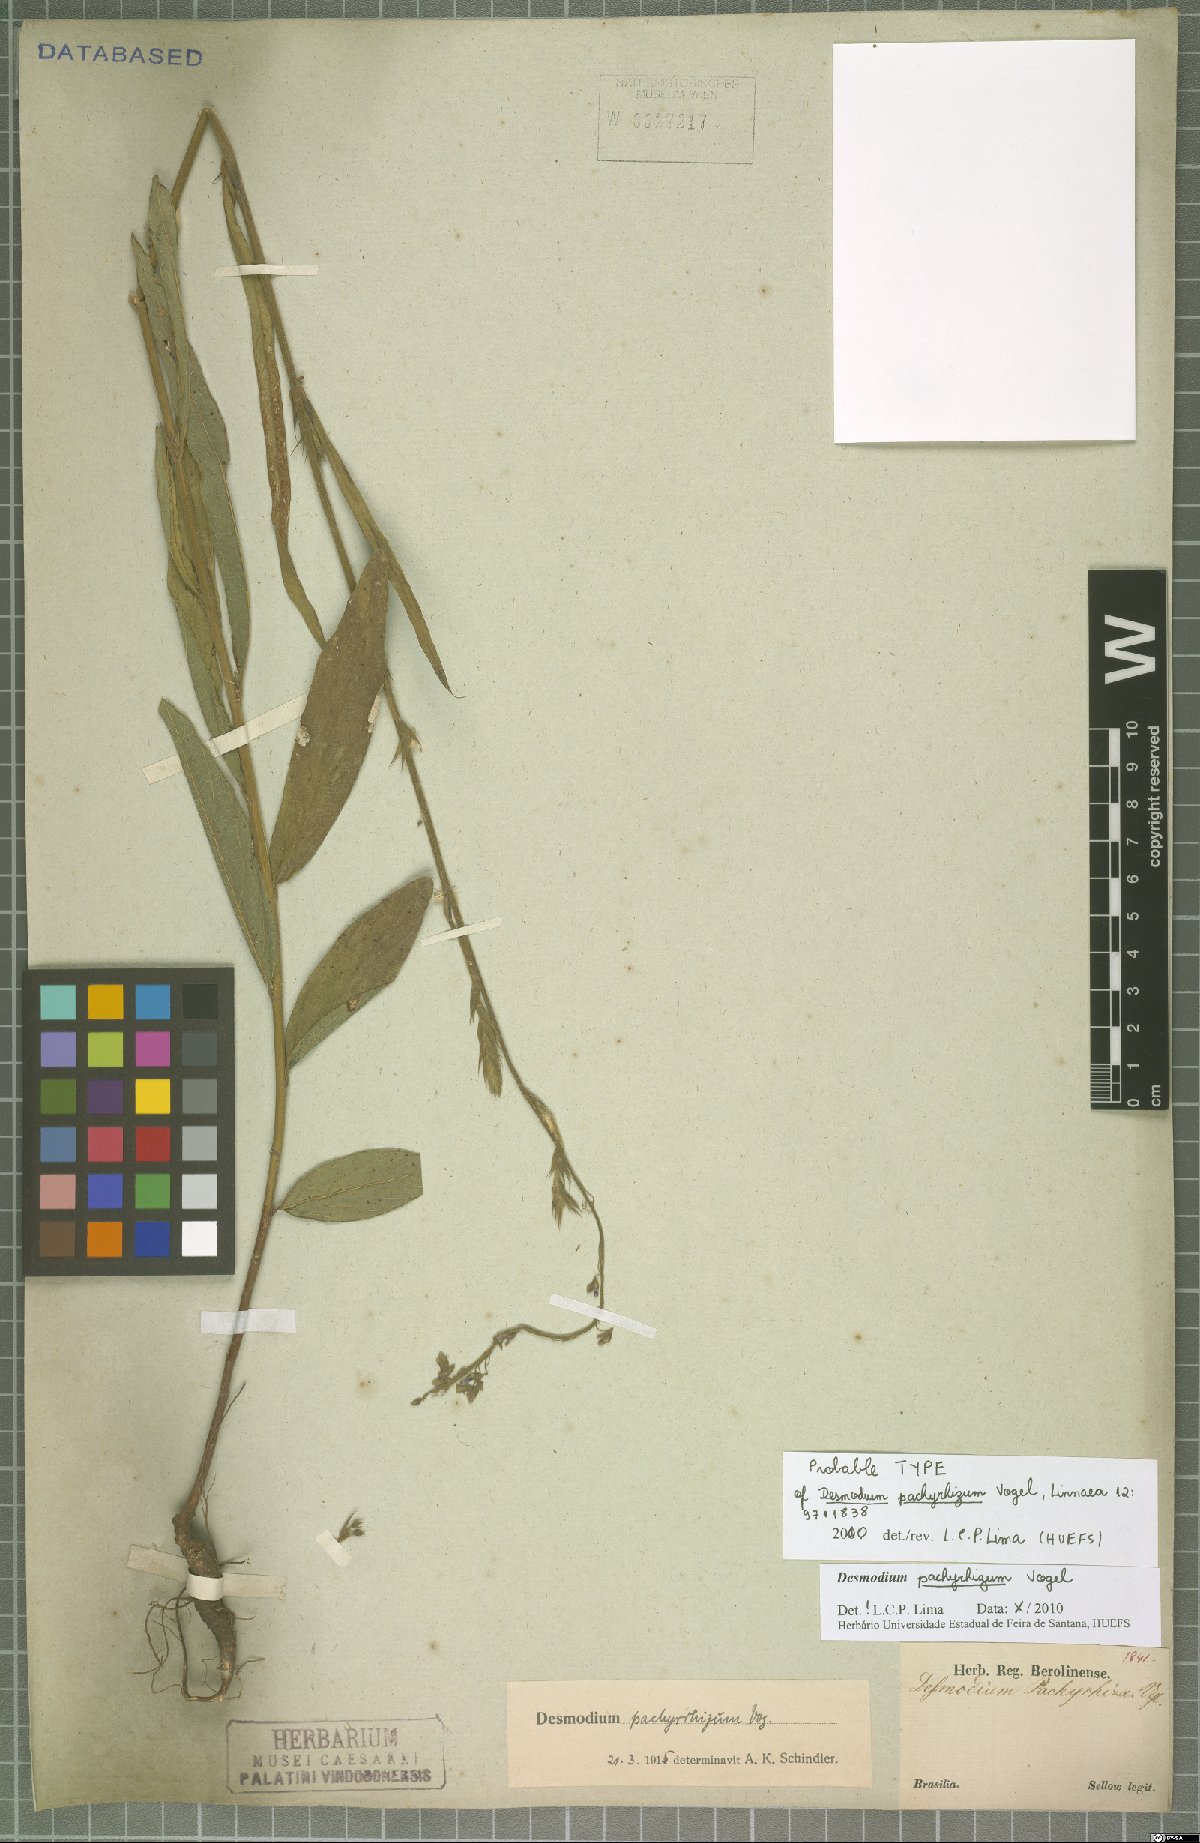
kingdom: Plantae
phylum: Tracheophyta
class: Magnoliopsida
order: Fabales
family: Fabaceae
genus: Desmodium
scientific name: Desmodium pachyrhizum
